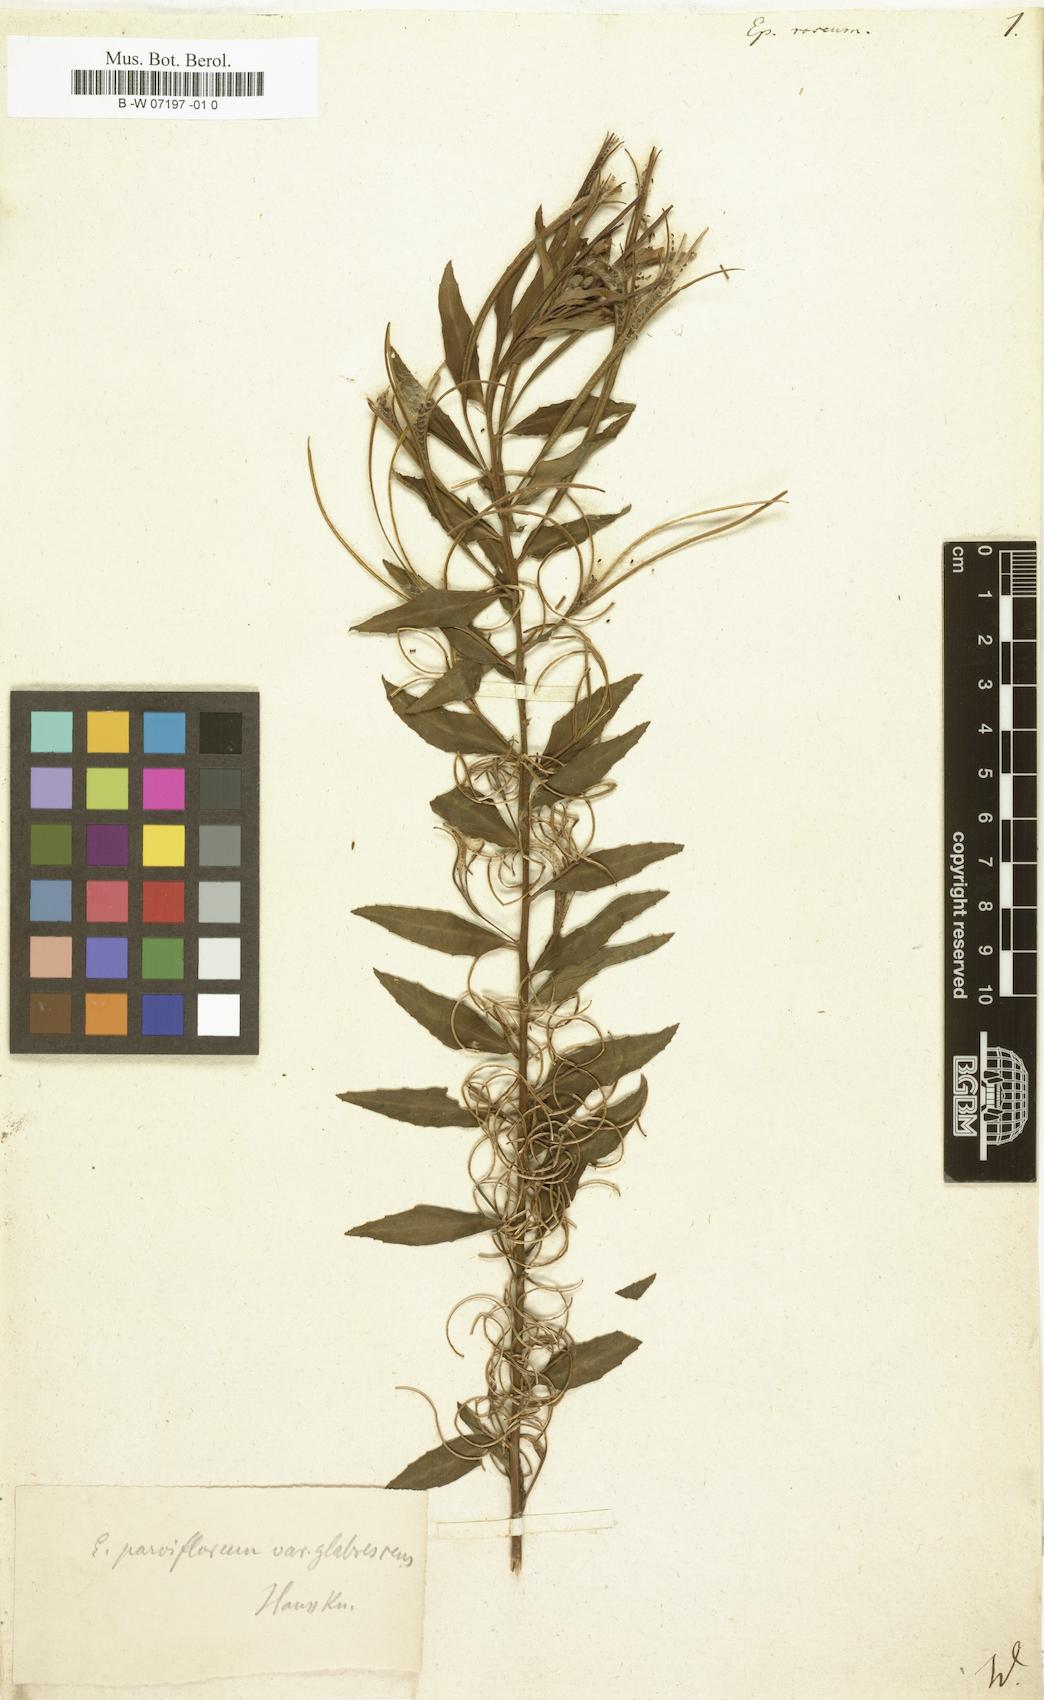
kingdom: Plantae
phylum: Tracheophyta
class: Magnoliopsida
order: Myrtales
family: Onagraceae
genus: Epilobium
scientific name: Epilobium roseum
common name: Pale willowherb
